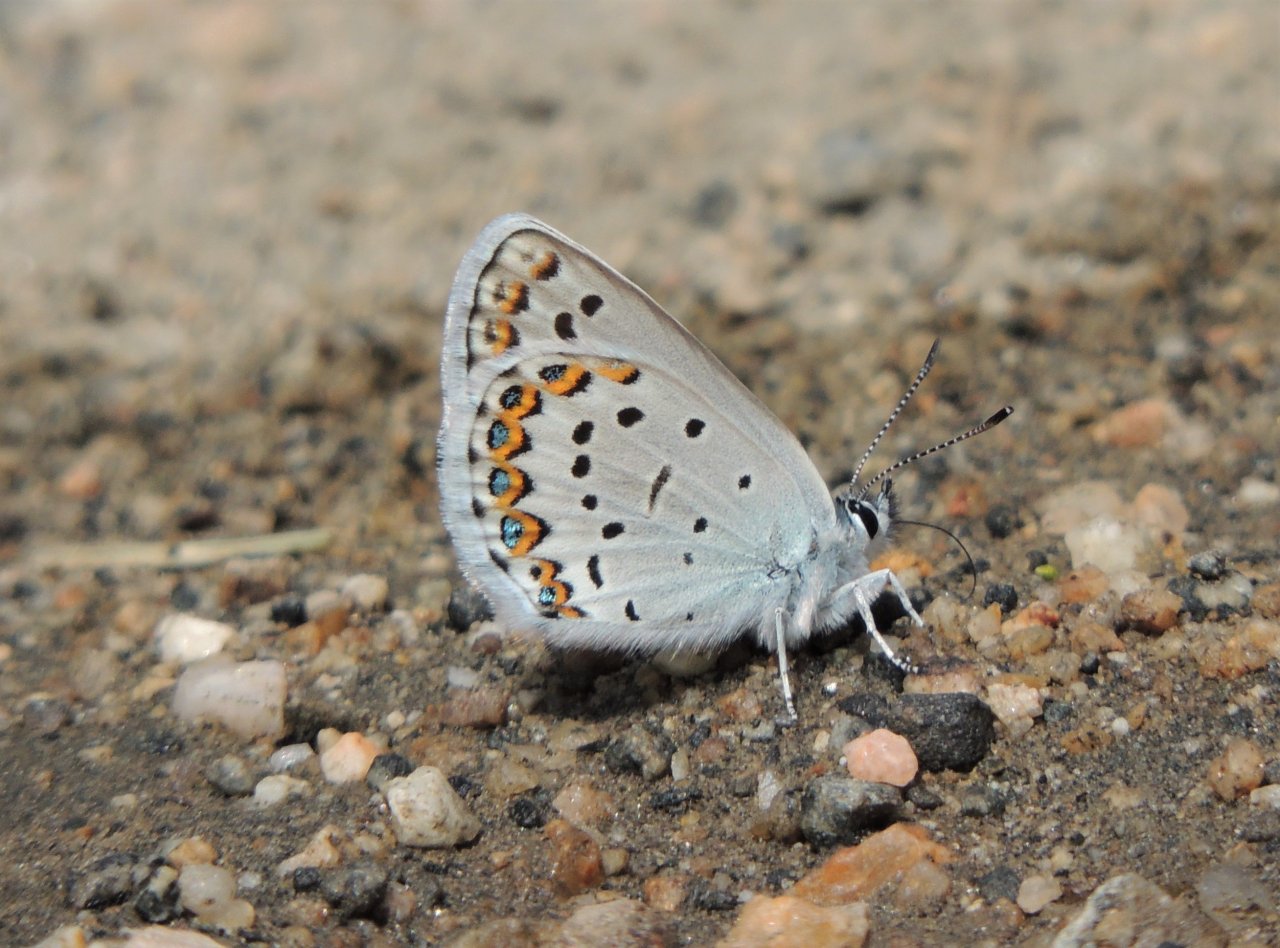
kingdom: Animalia
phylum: Arthropoda
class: Insecta
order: Lepidoptera
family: Lycaenidae
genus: Lycaeides
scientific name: Lycaeides melissa
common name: Melissa Blue
